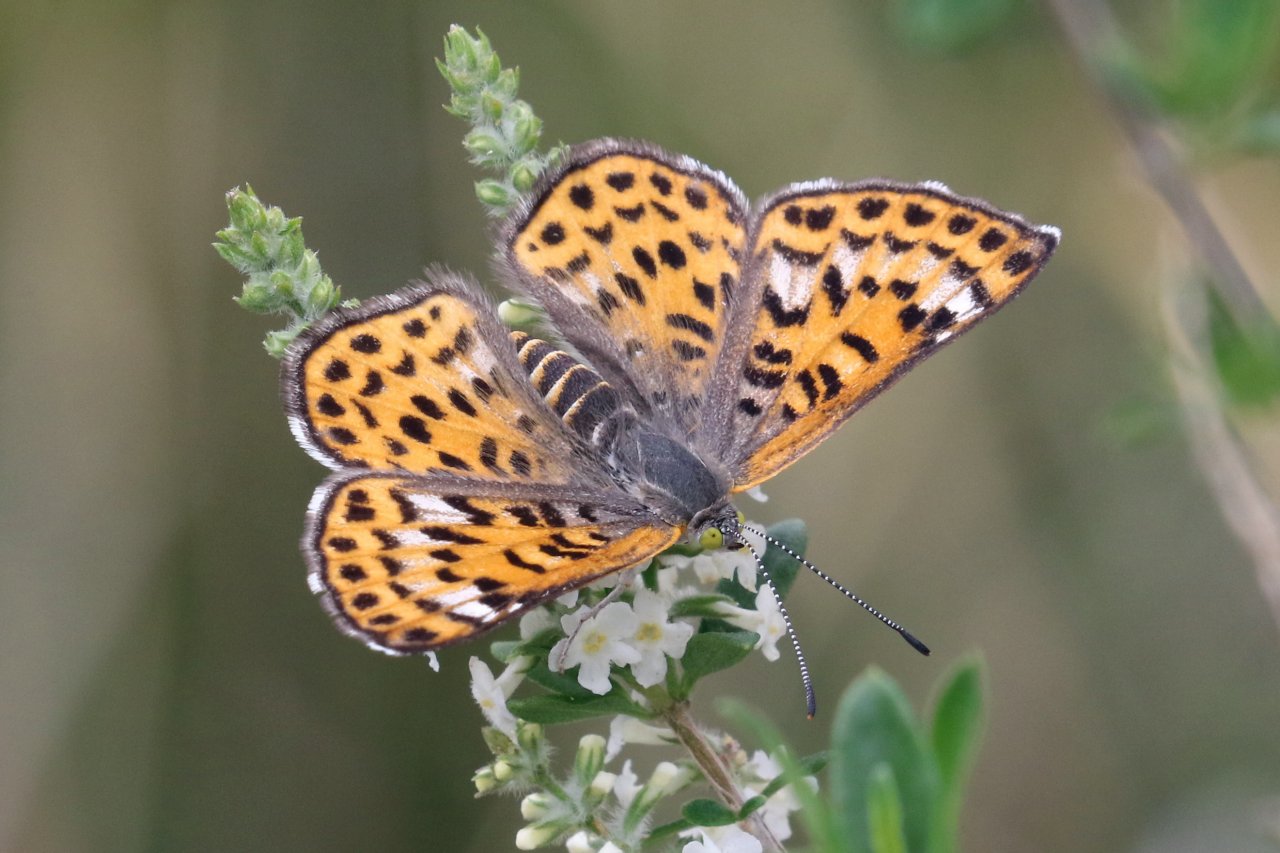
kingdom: Animalia
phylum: Arthropoda
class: Insecta
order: Lepidoptera
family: Riodinidae
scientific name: Riodinidae
